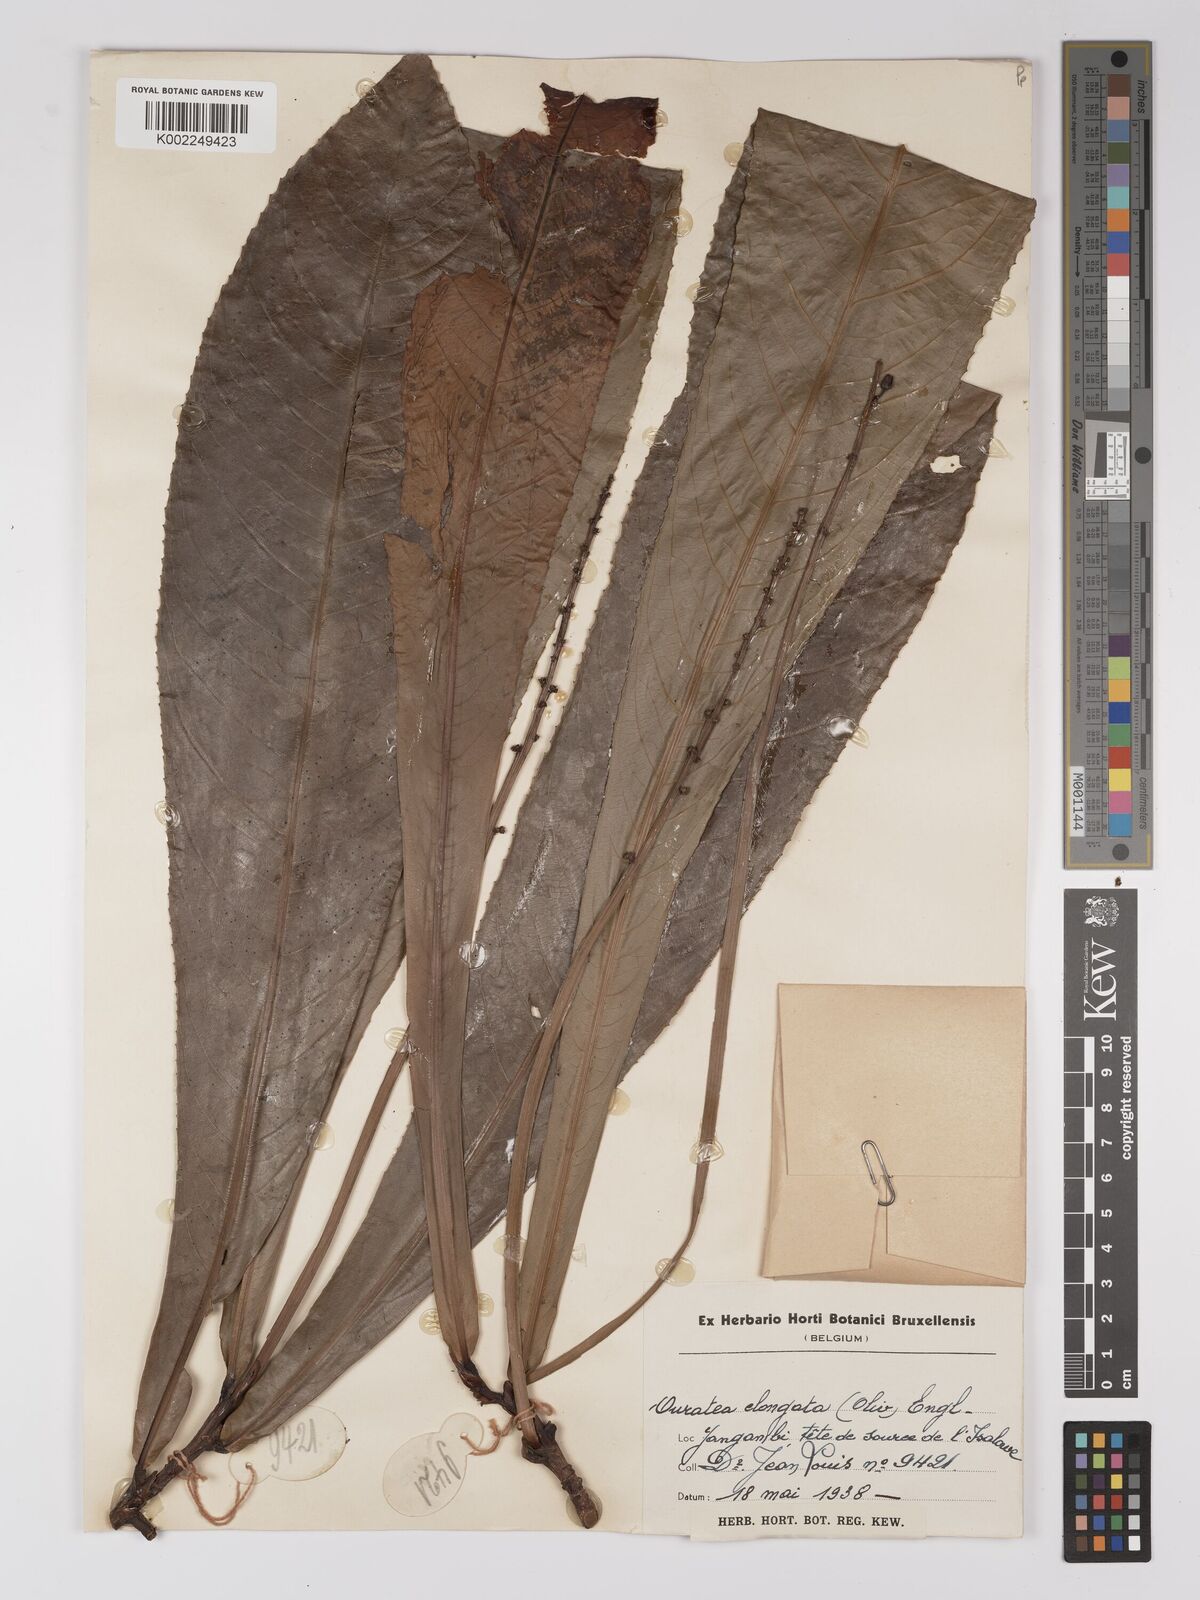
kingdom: Plantae
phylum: Tracheophyta
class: Magnoliopsida
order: Malpighiales
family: Ochnaceae
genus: Gomphia
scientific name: Gomphia elongata
